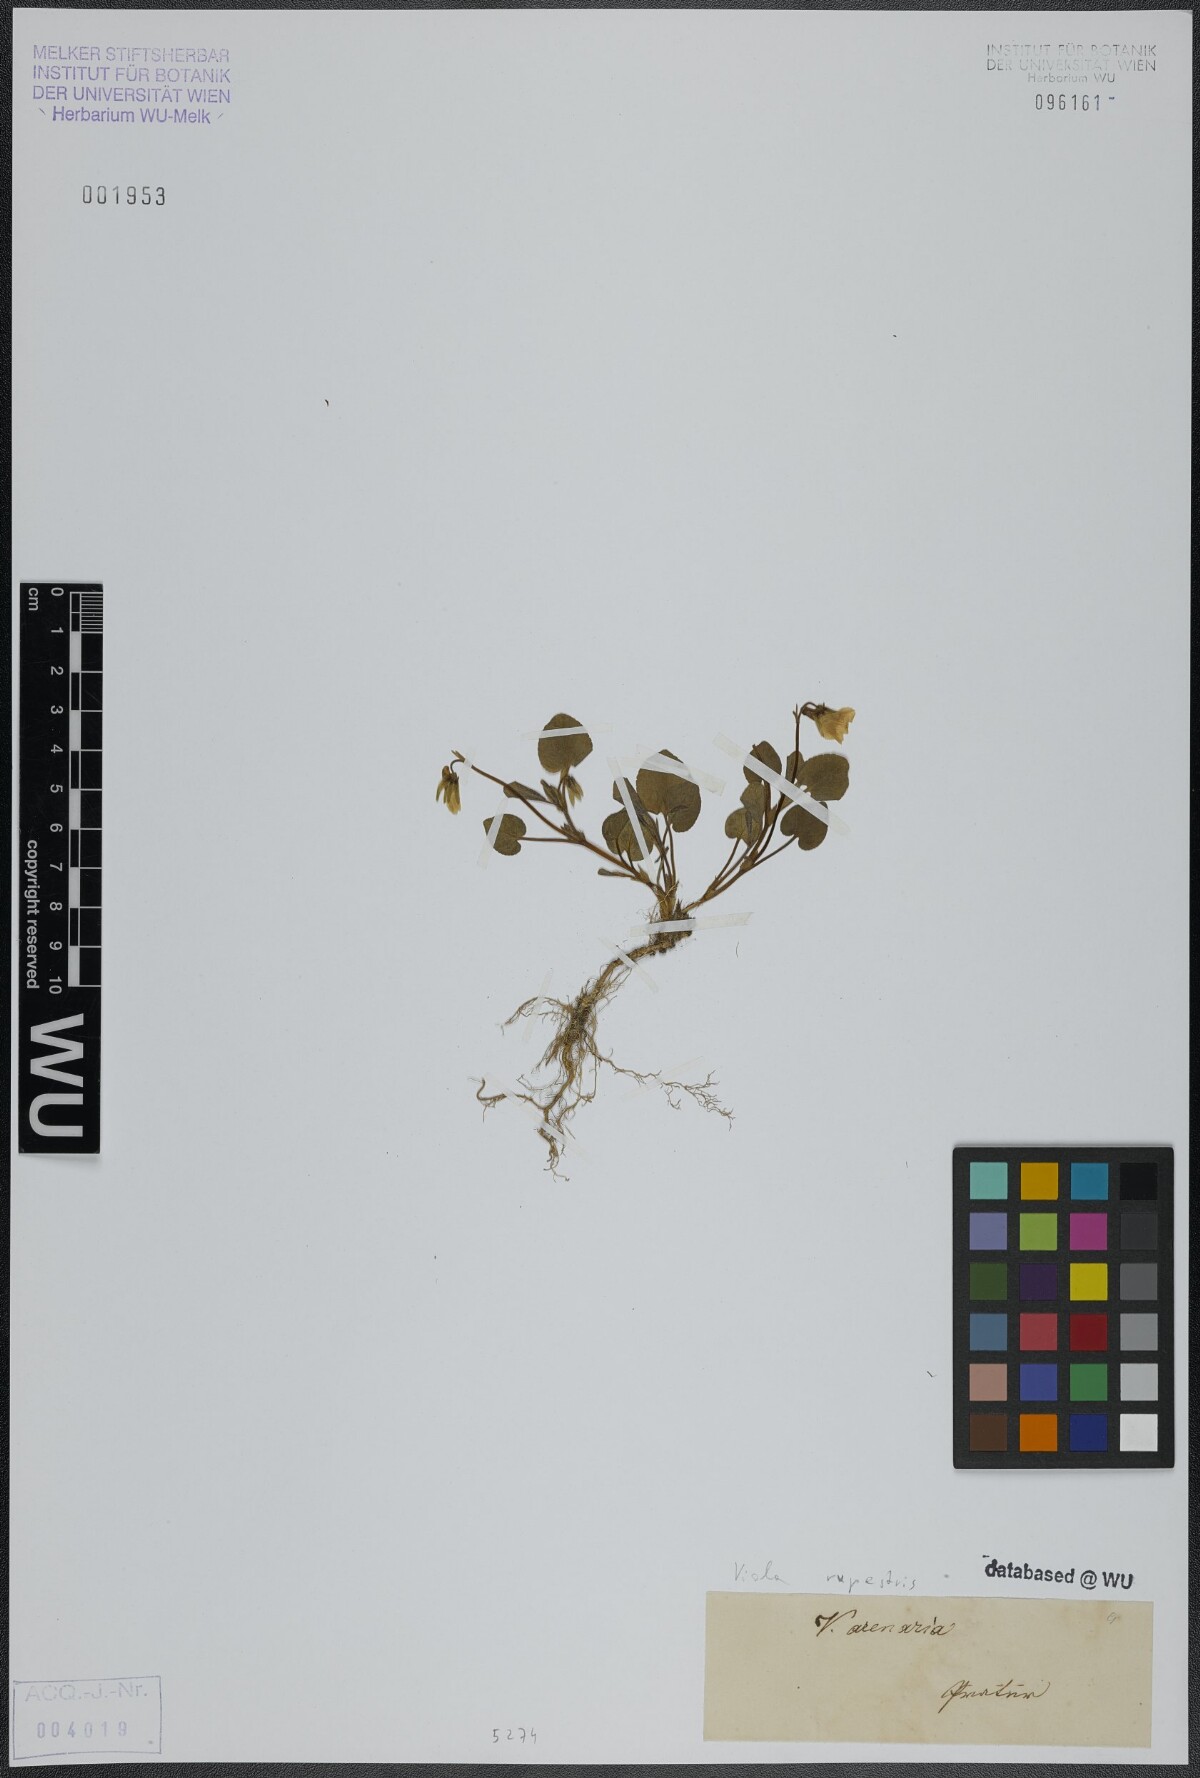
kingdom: Plantae
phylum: Tracheophyta
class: Magnoliopsida
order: Malpighiales
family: Violaceae
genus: Viola
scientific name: Viola rupestris
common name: Teesdale violet
